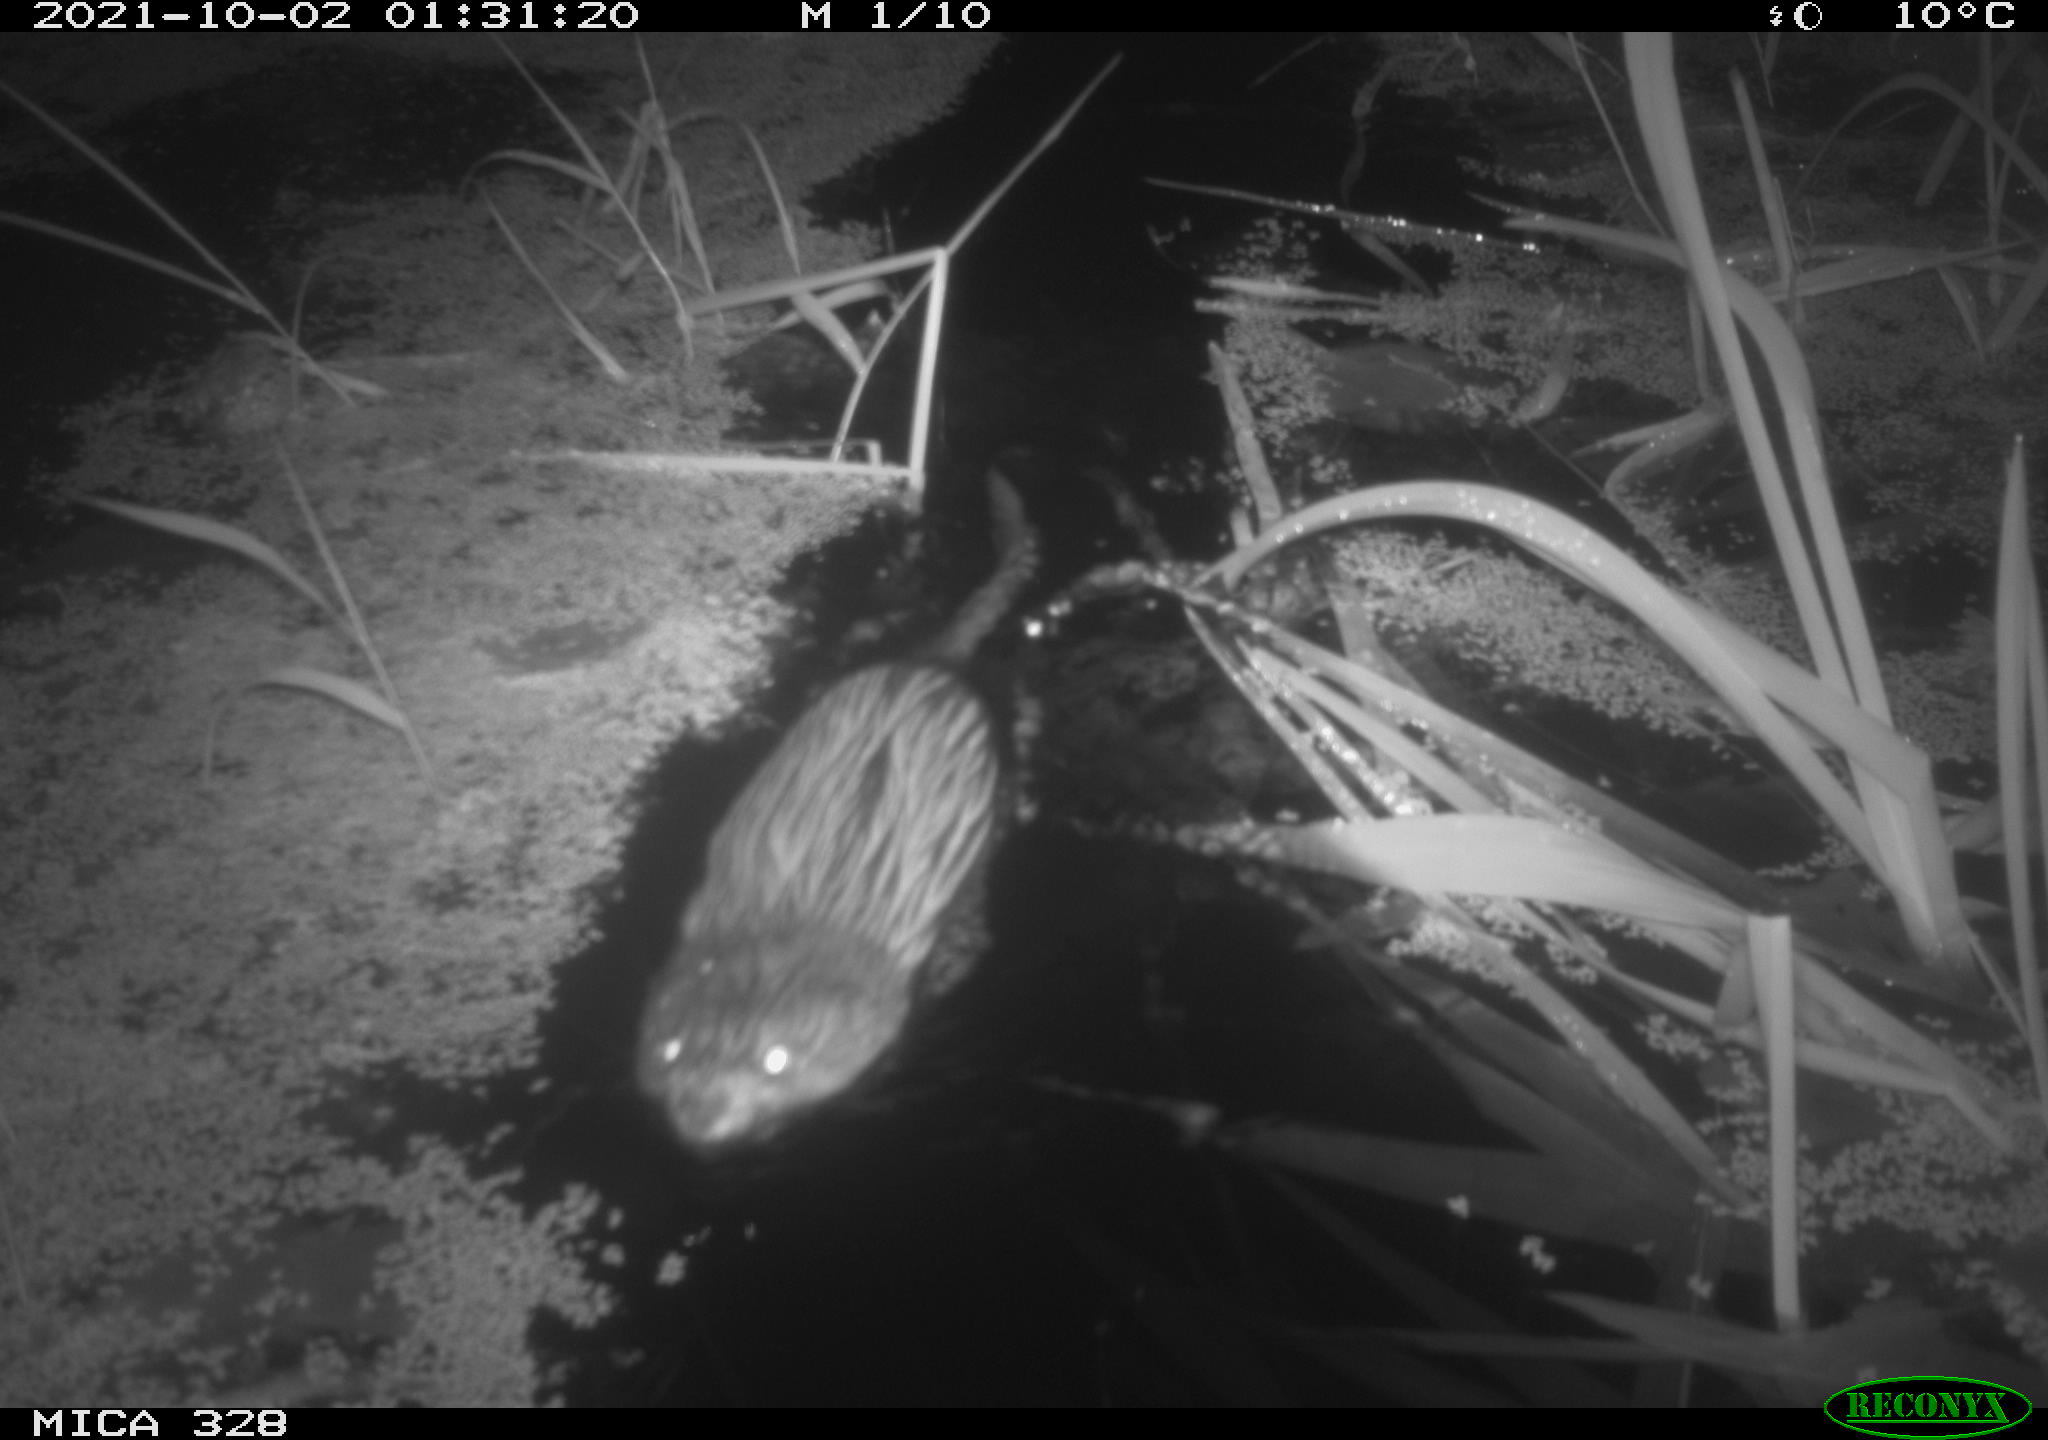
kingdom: Animalia
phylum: Chordata
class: Mammalia
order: Rodentia
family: Cricetidae
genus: Ondatra
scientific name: Ondatra zibethicus
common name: Muskrat
